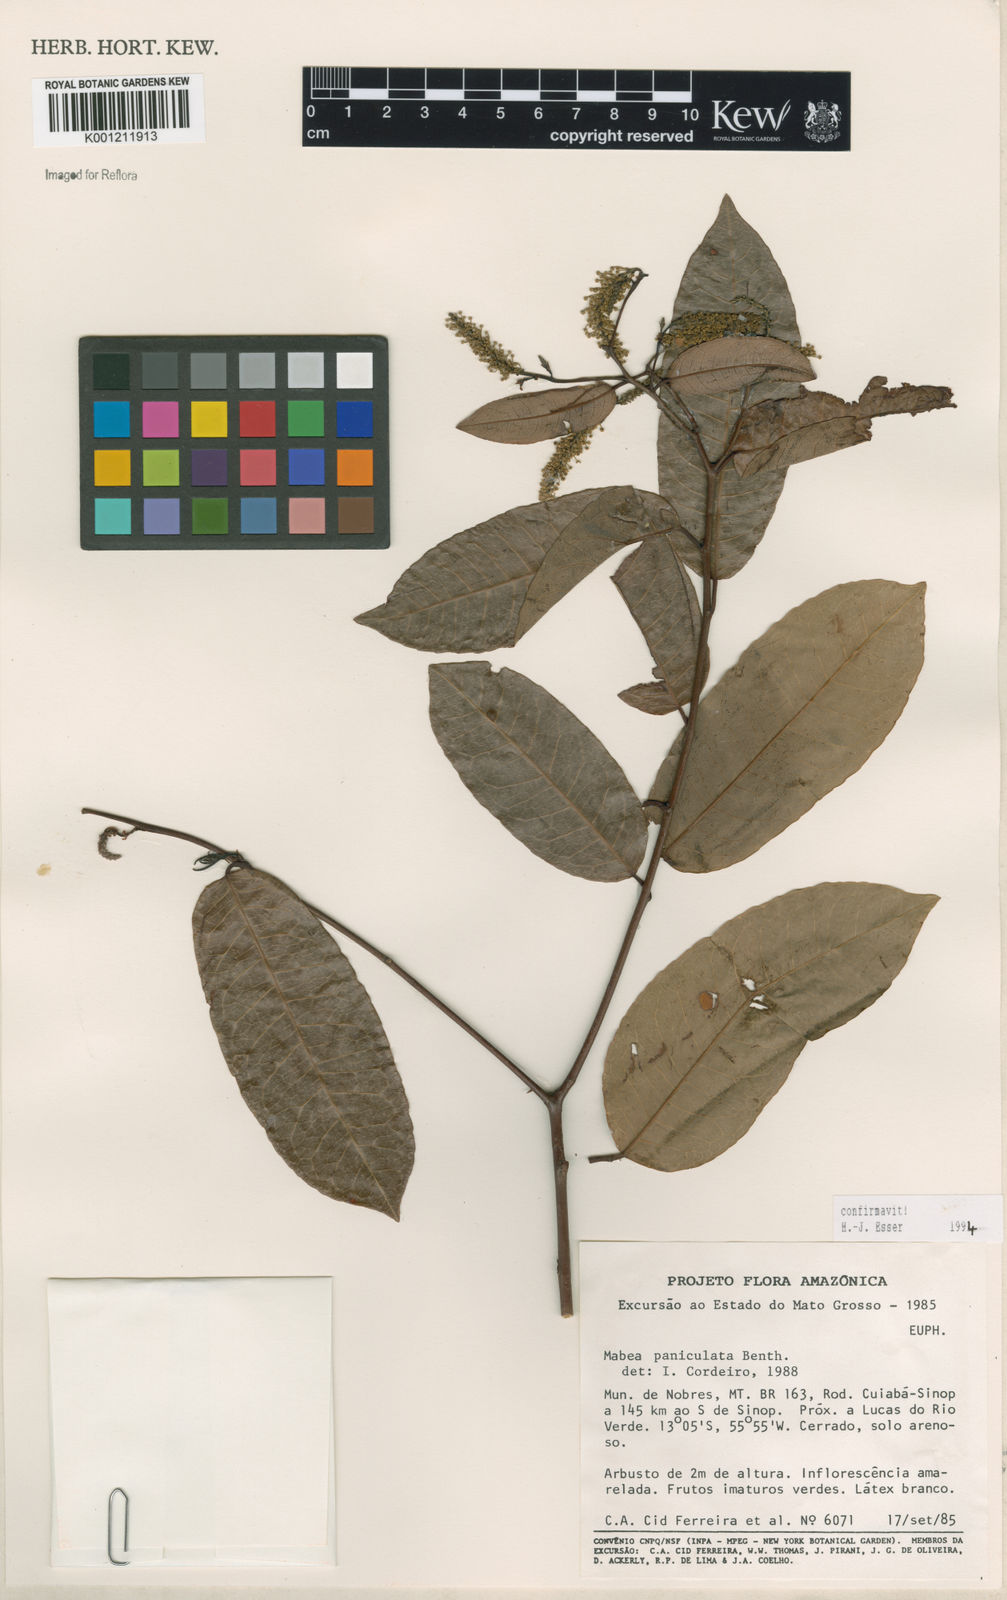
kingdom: Plantae
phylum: Tracheophyta
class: Magnoliopsida
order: Malpighiales
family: Euphorbiaceae
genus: Mabea
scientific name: Mabea paniculata
